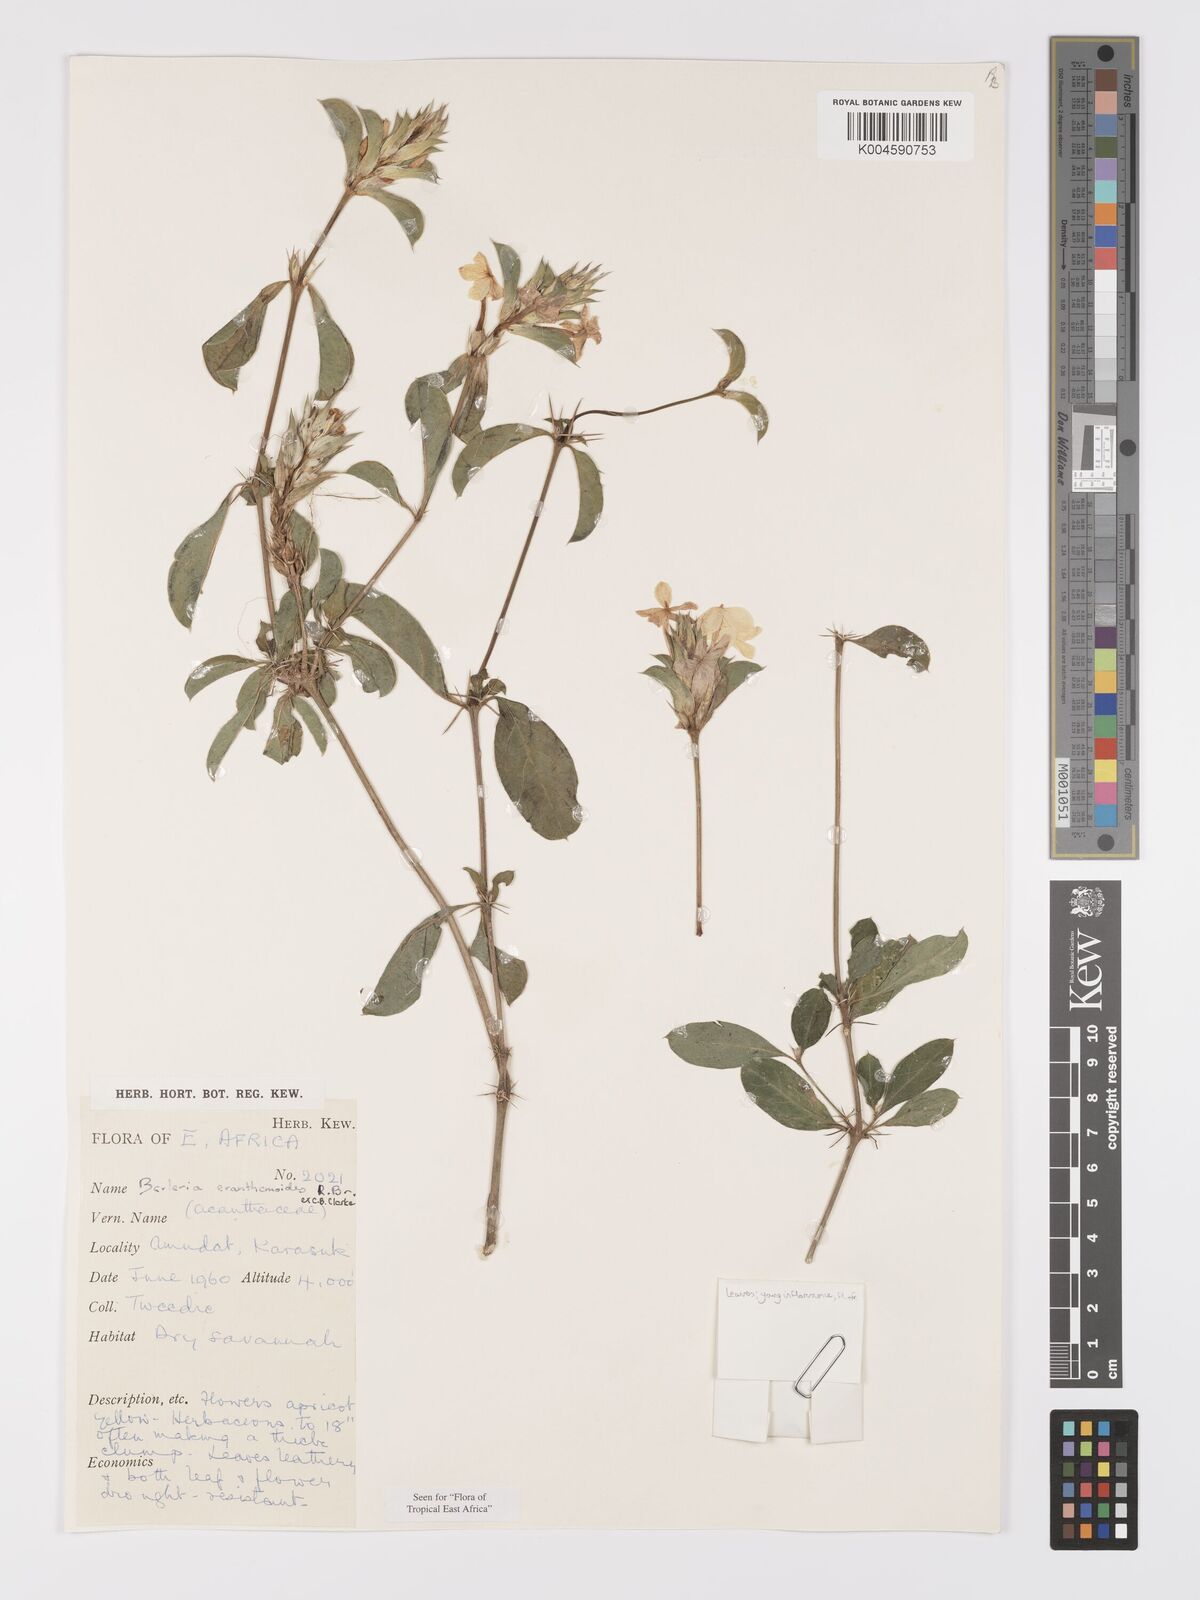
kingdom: Plantae
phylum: Tracheophyta
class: Magnoliopsida
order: Lamiales
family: Acanthaceae
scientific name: Acanthaceae
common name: Acanthaceae
